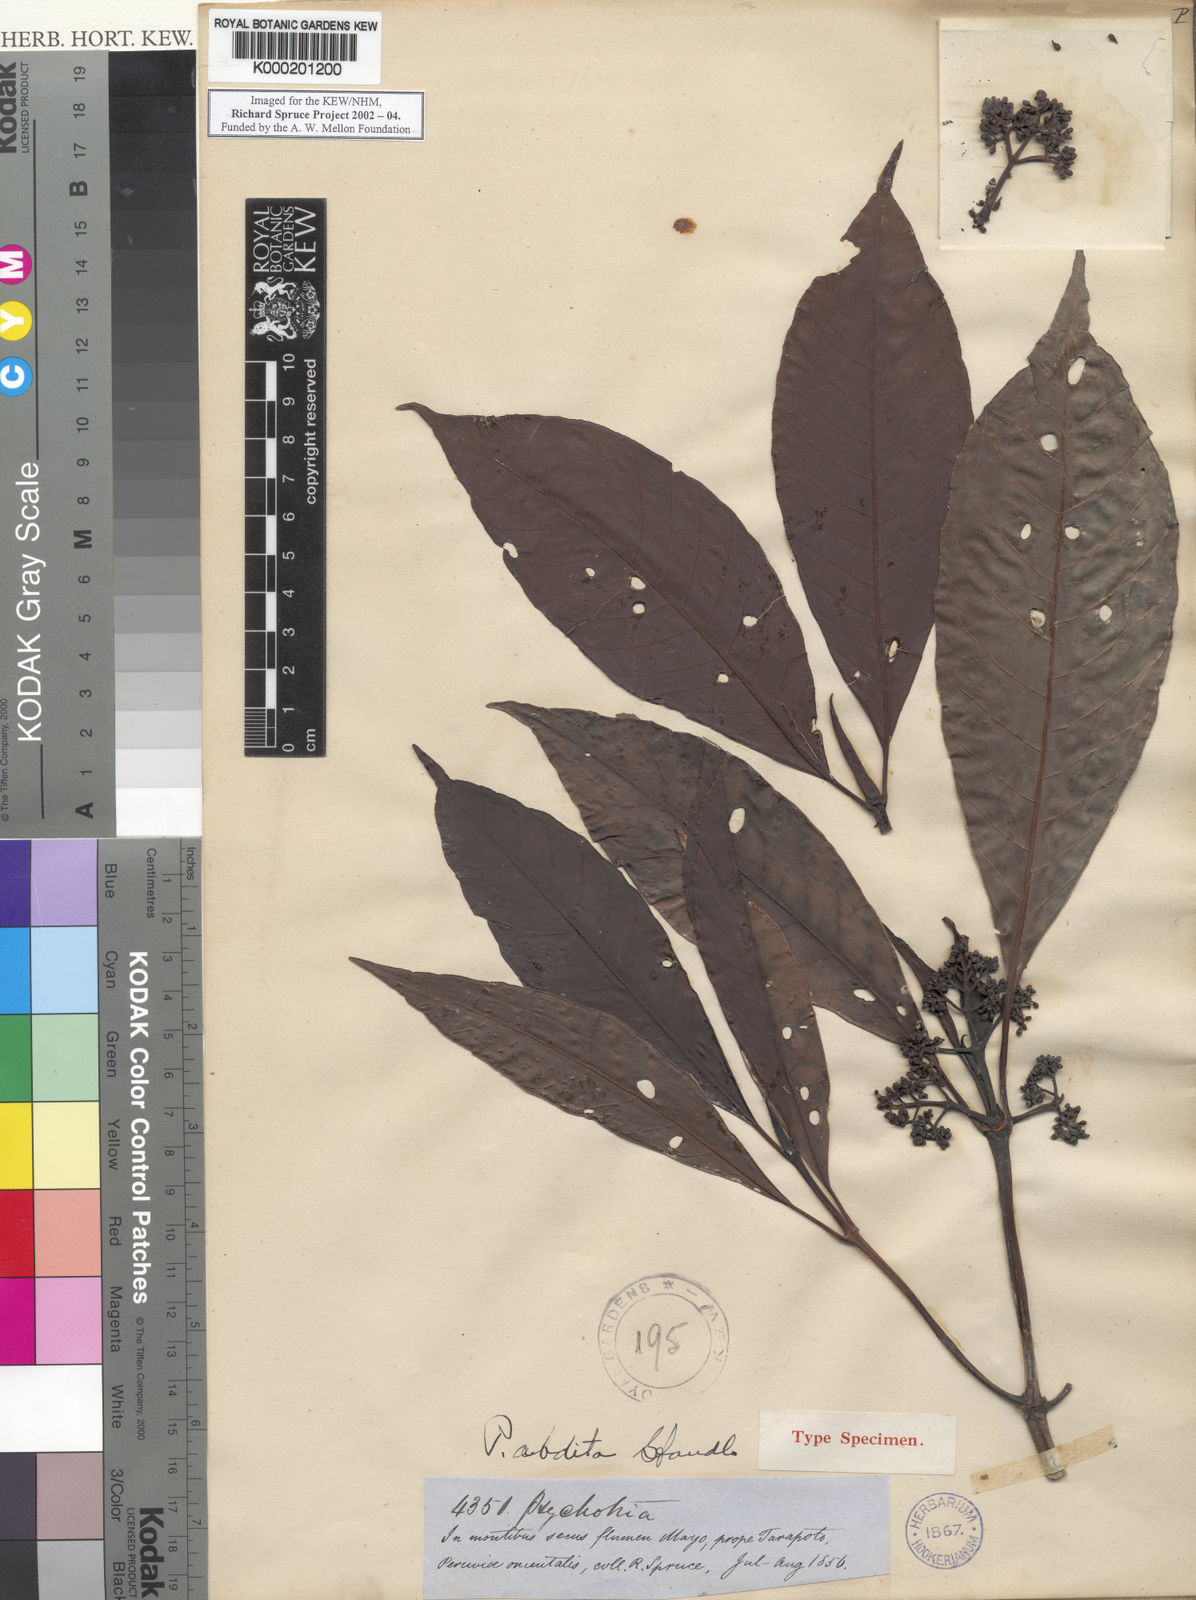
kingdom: Plantae
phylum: Tracheophyta
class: Magnoliopsida
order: Gentianales
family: Rubiaceae
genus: Psychotria
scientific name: Psychotria abdita
